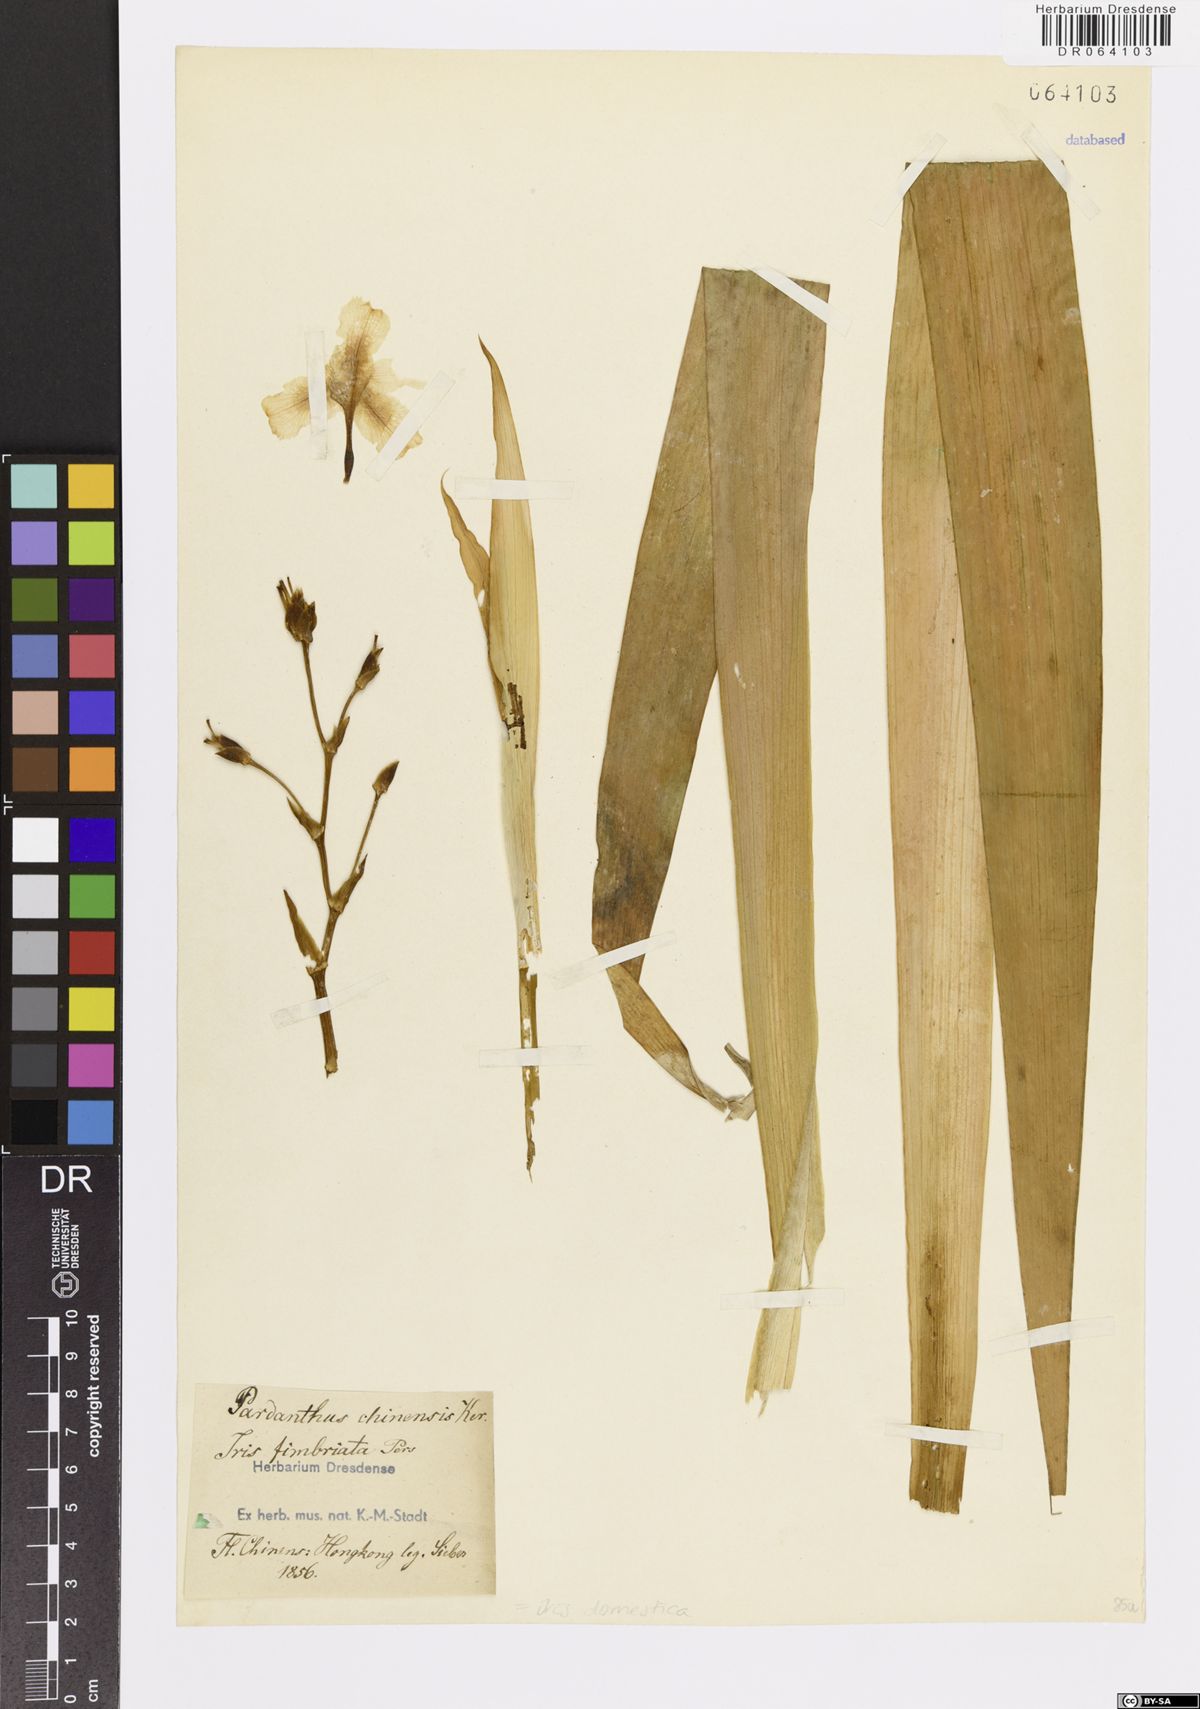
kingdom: Plantae
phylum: Tracheophyta
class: Liliopsida
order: Asparagales
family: Iridaceae
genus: Iris
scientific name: Iris domestica
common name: Belamcanda
